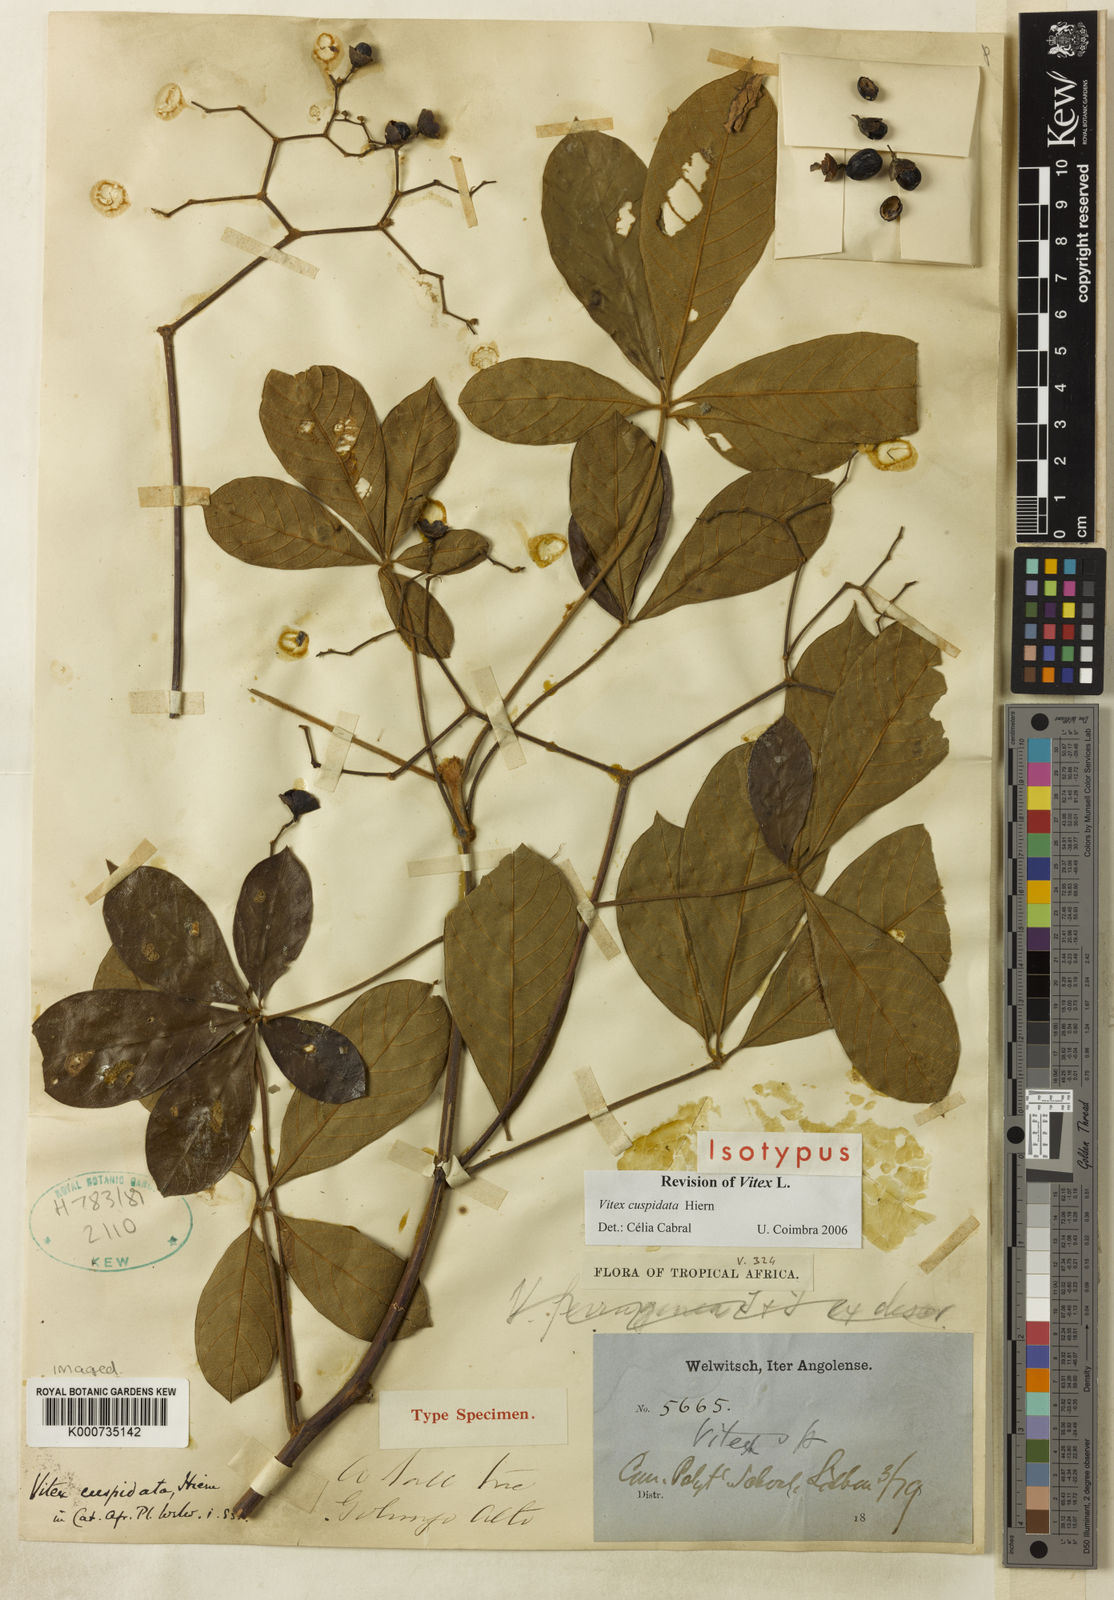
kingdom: Plantae
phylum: Tracheophyta
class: Magnoliopsida
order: Lamiales
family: Lamiaceae
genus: Vitex
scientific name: Vitex cuspidata
